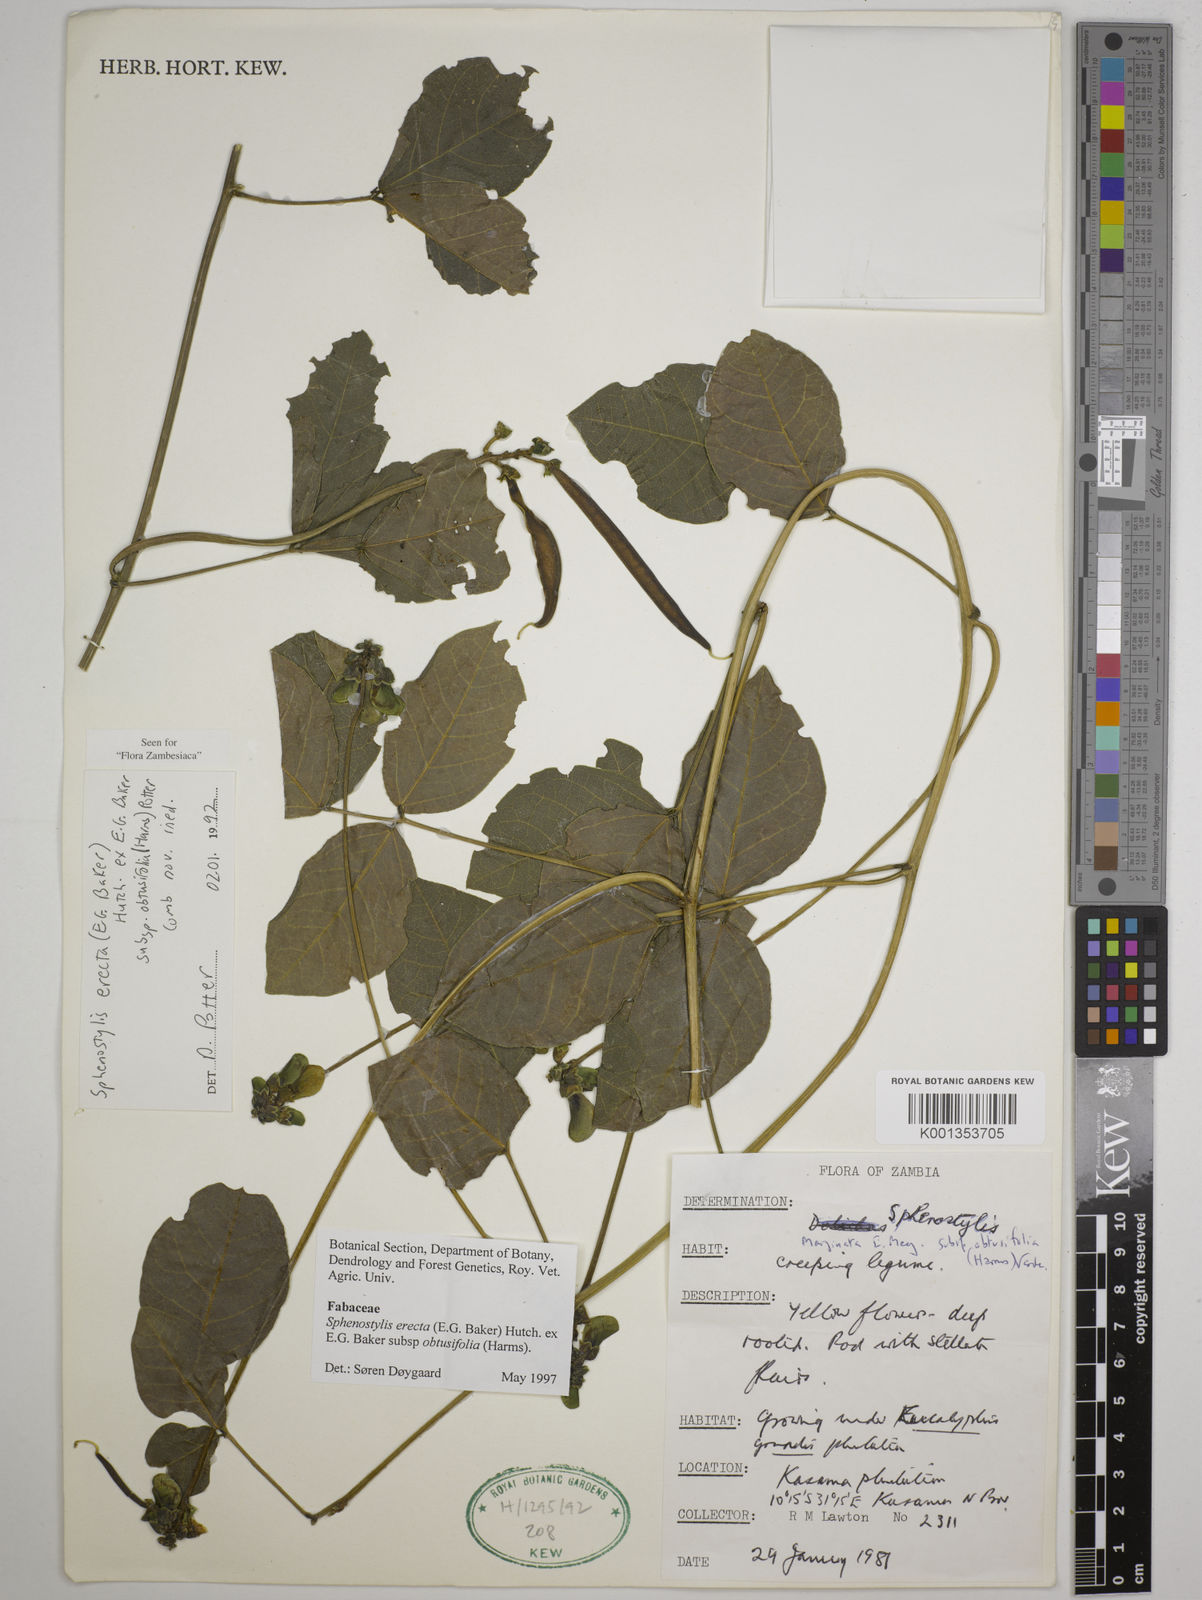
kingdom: Plantae
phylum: Tracheophyta
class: Magnoliopsida
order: Fabales
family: Fabaceae
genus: Sphenostylis
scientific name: Sphenostylis
